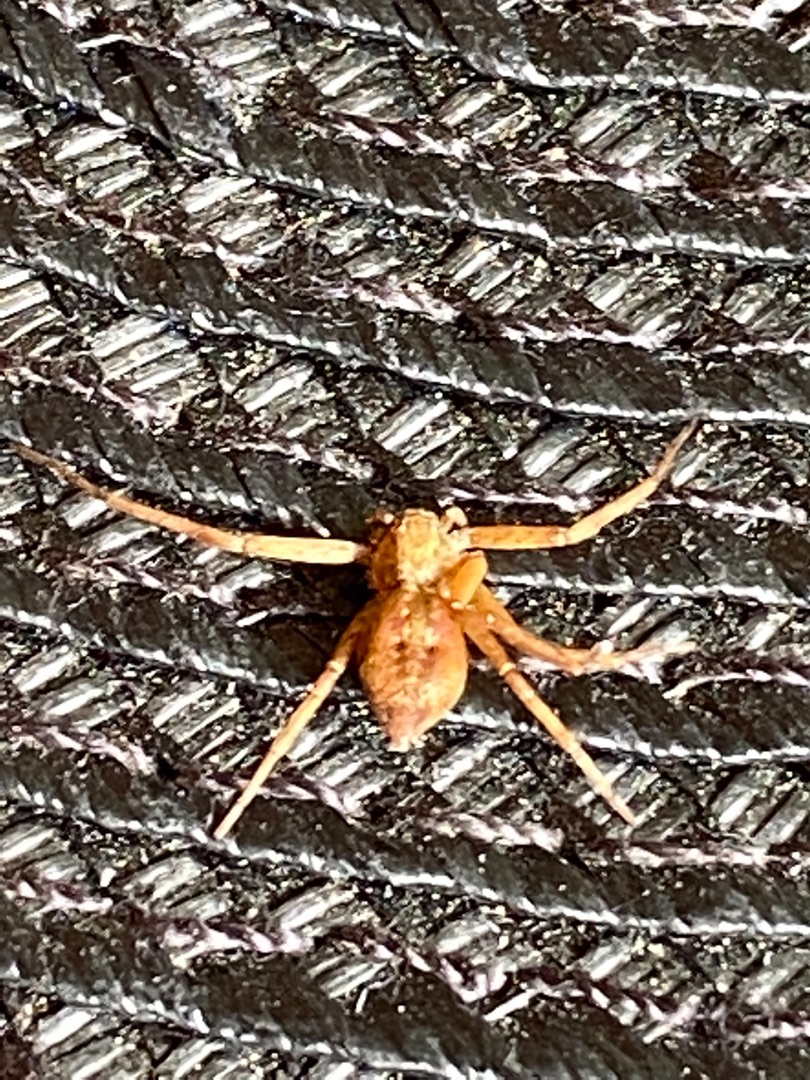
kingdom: Animalia
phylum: Arthropoda
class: Arachnida
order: Araneae
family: Philodromidae
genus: Philodromus
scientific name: Philodromus
